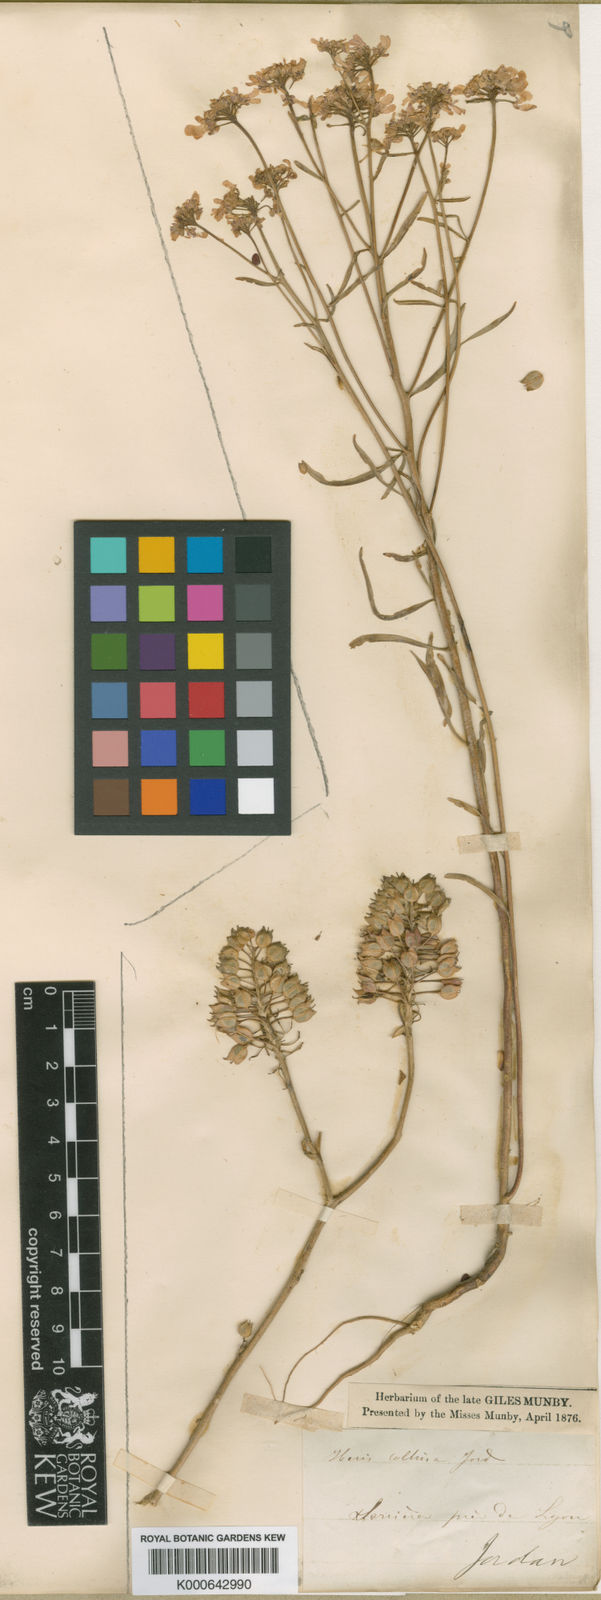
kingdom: Plantae
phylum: Tracheophyta
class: Magnoliopsida
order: Brassicales
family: Brassicaceae
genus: Iberis
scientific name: Iberis linifolia
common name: Candytuft
